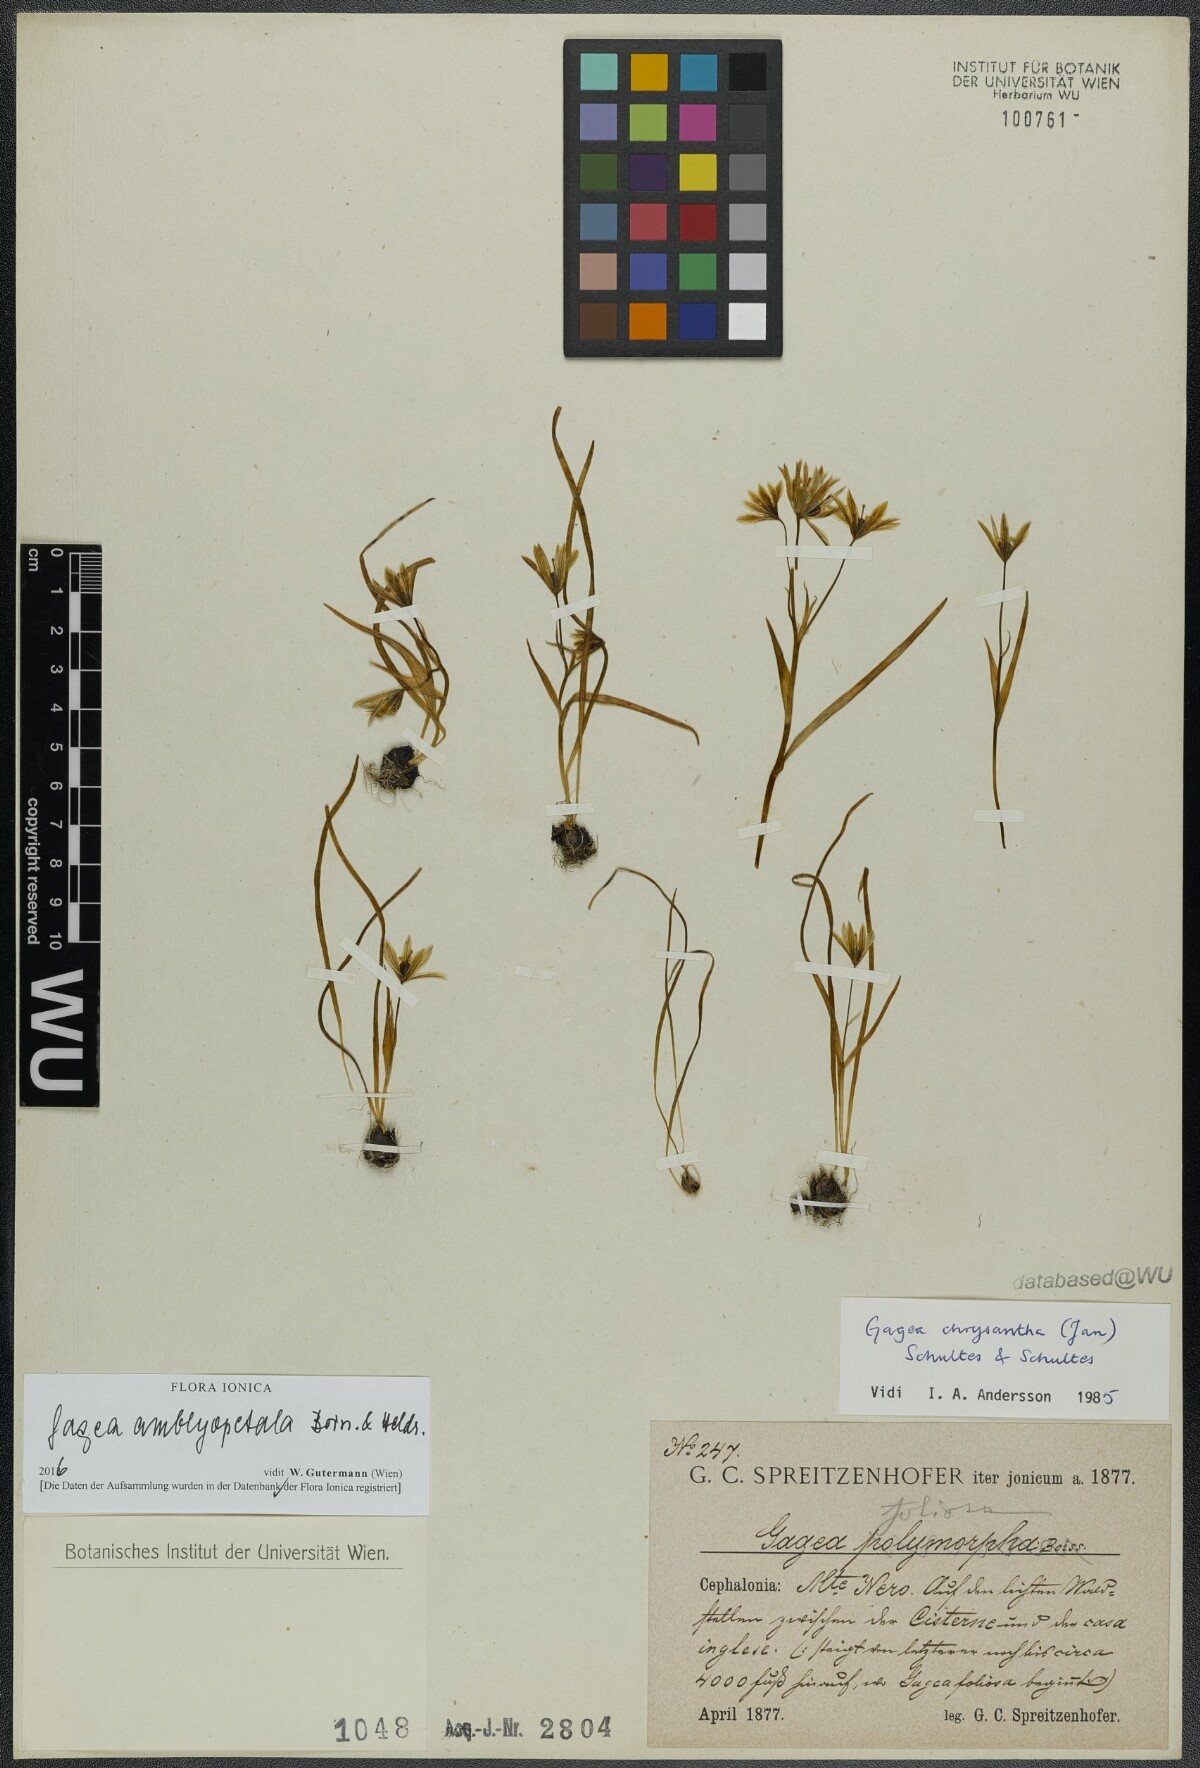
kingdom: Plantae
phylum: Tracheophyta
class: Liliopsida
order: Liliales
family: Liliaceae
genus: Gagea
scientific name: Gagea amblyopetala
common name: Blunt-flowered gagea
